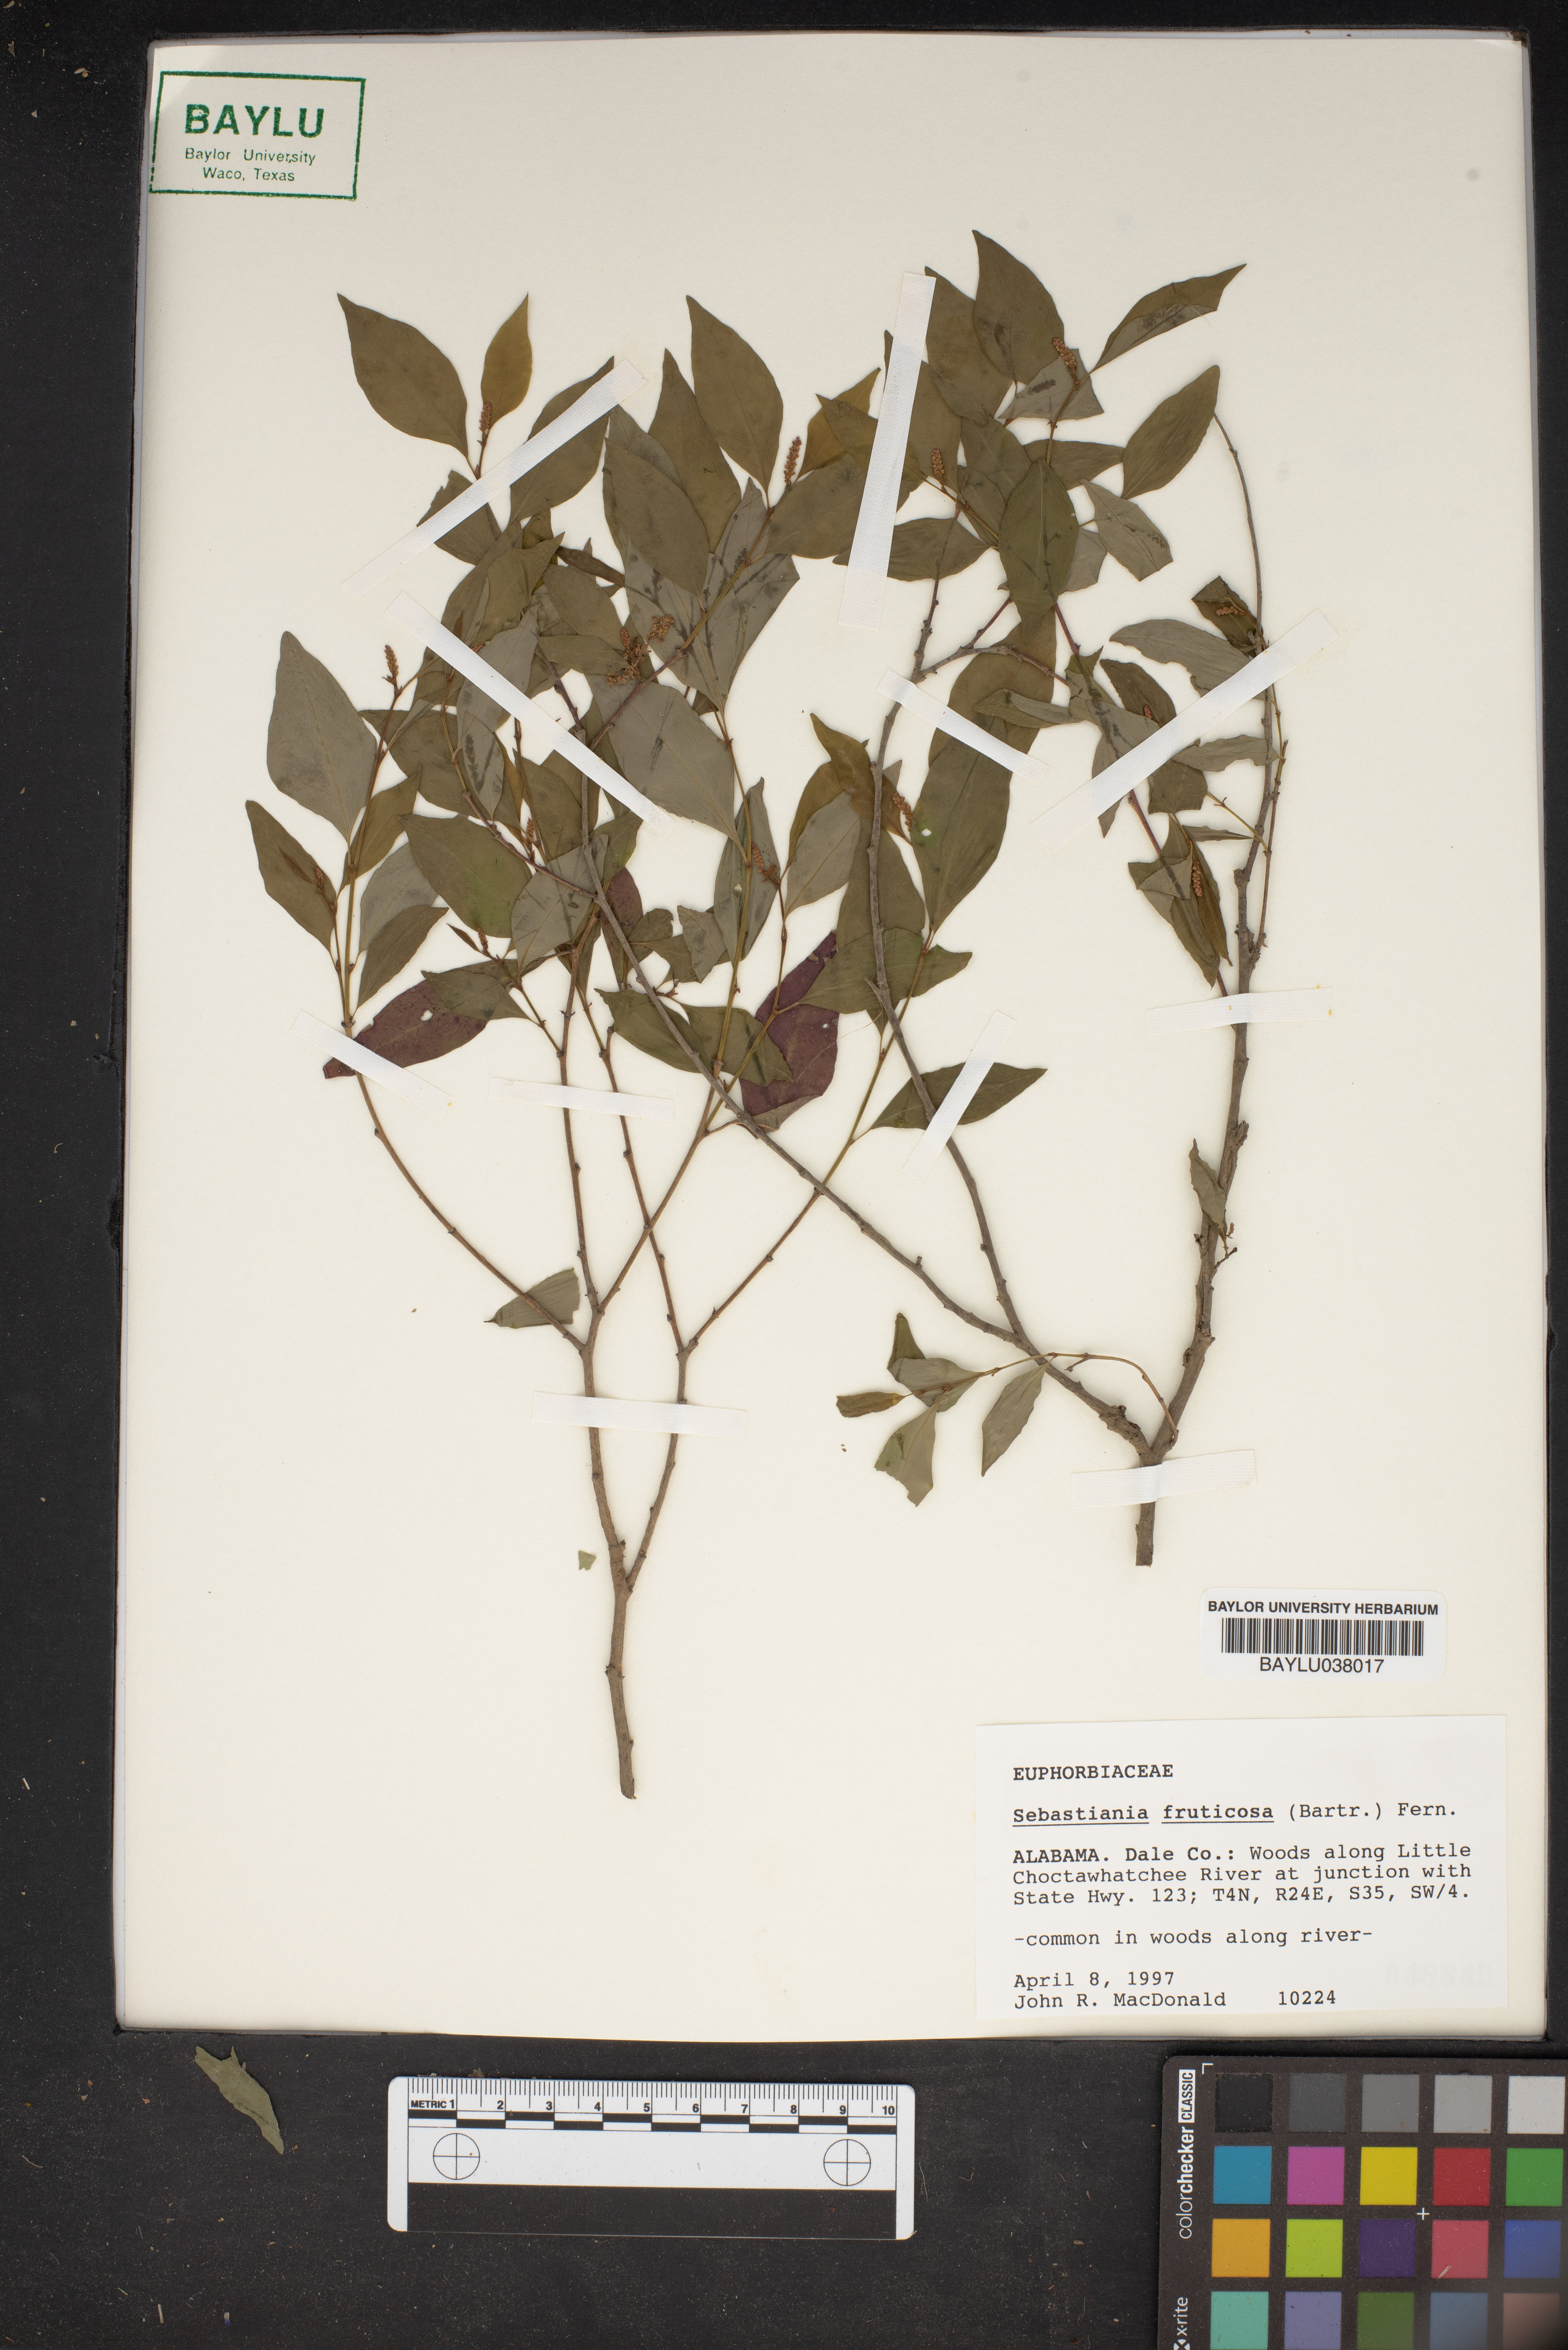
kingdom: Plantae
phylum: Tracheophyta
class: Magnoliopsida
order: Malpighiales
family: Euphorbiaceae
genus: Ditrysinia
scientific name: Ditrysinia fruticosa
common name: Gulf sebastian-bush
